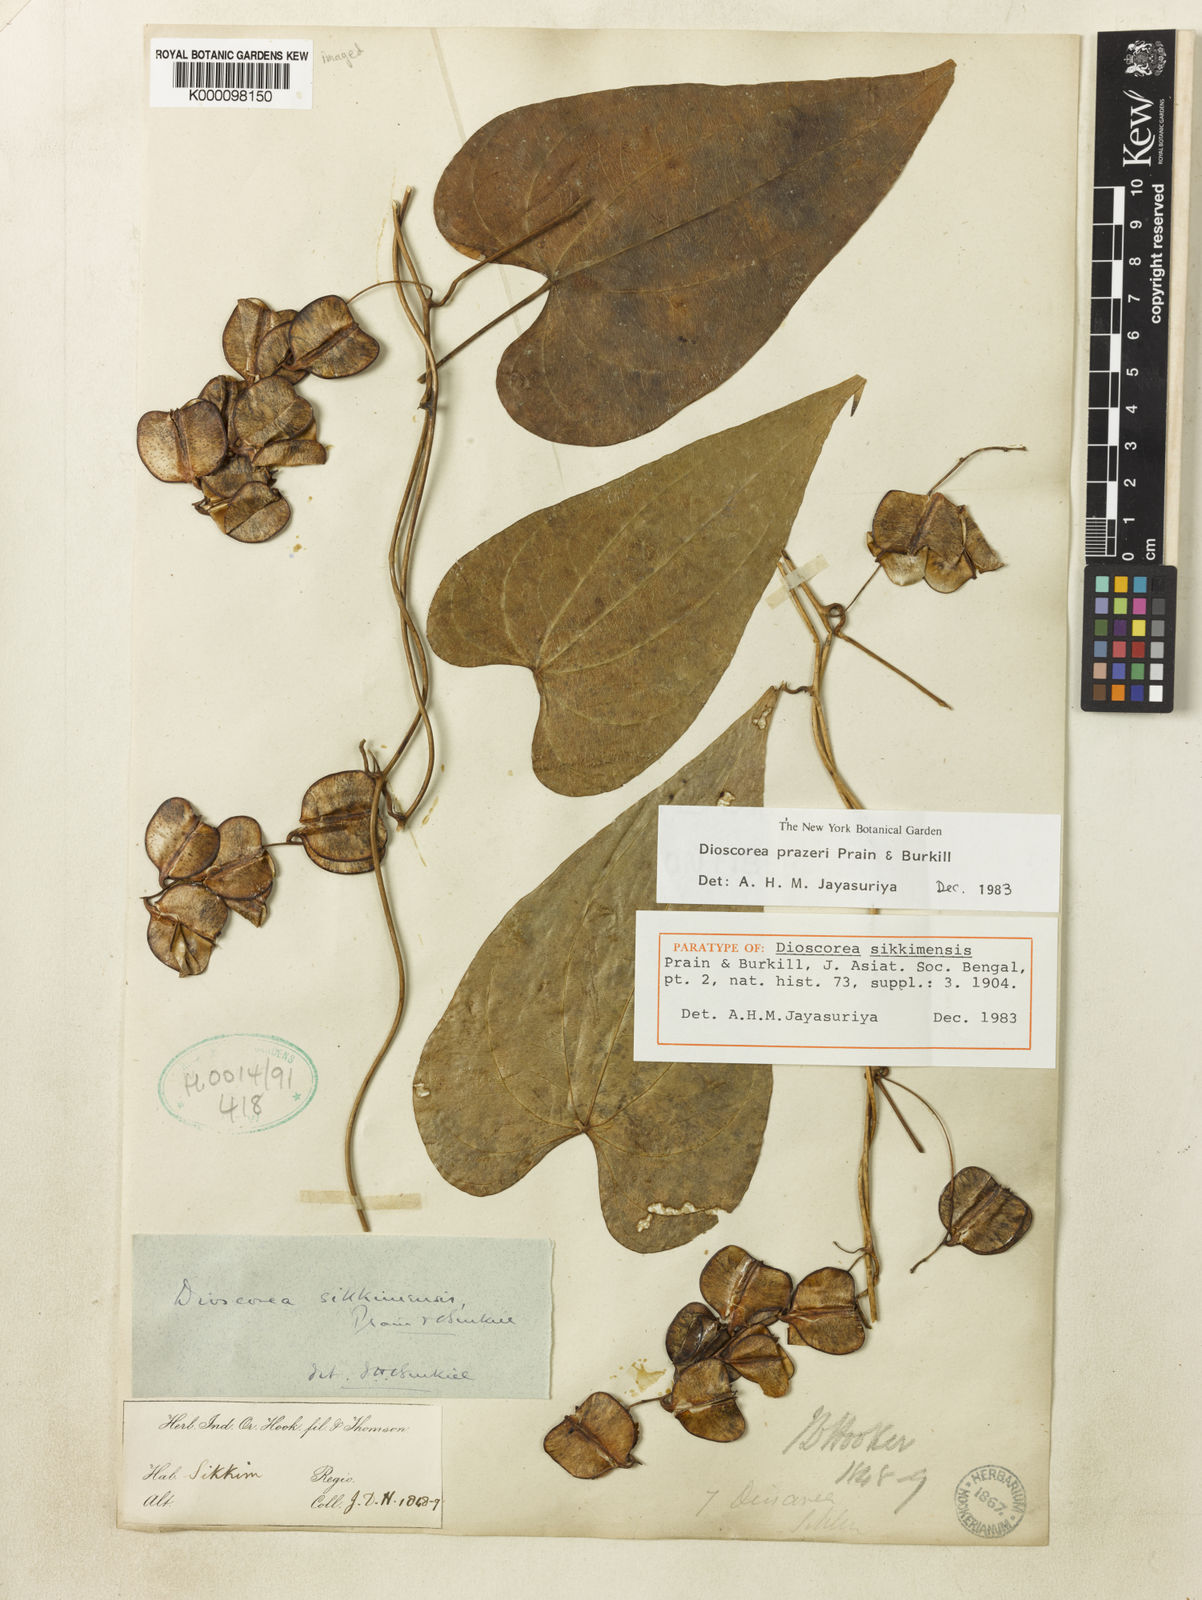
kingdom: Plantae
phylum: Tracheophyta
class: Liliopsida
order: Dioscoreales
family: Dioscoreaceae
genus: Dioscorea
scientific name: Dioscorea prazeri
